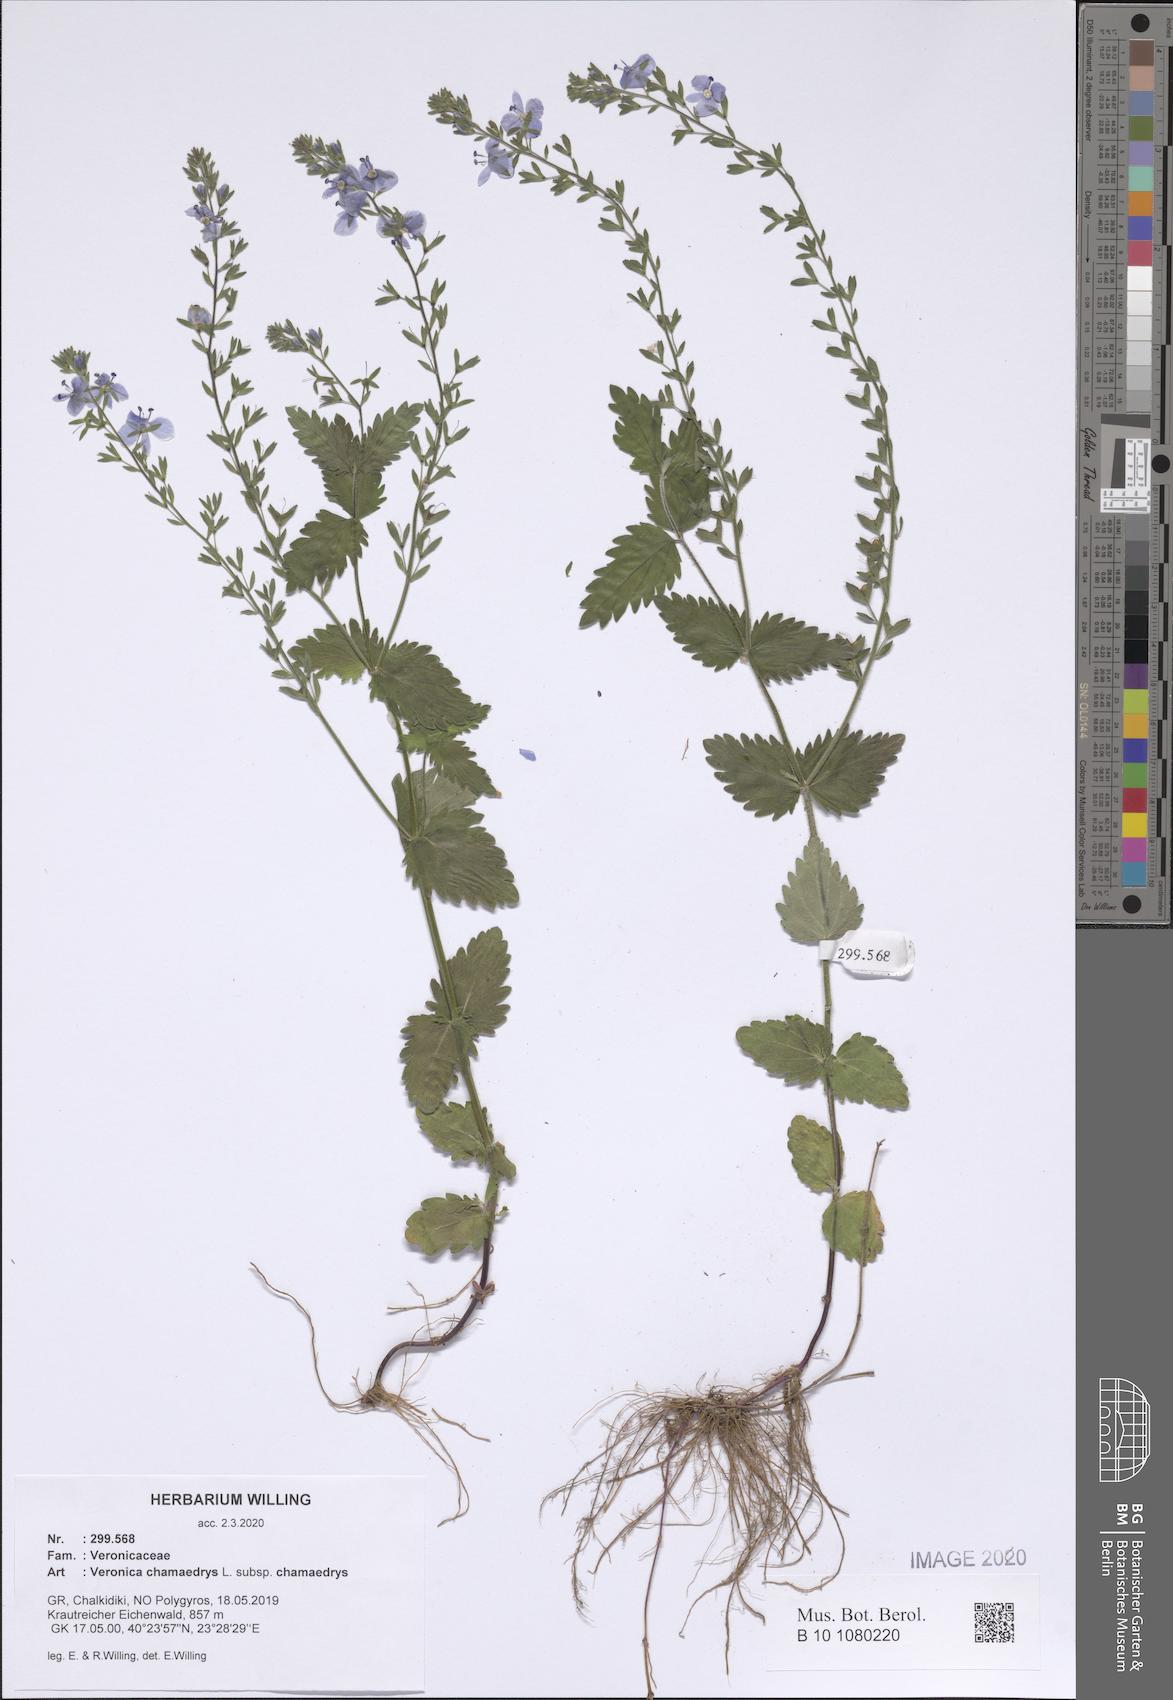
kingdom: Plantae
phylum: Tracheophyta
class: Magnoliopsida
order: Lamiales
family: Plantaginaceae
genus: Veronica
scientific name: Veronica chamaedrys
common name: Germander speedwell
